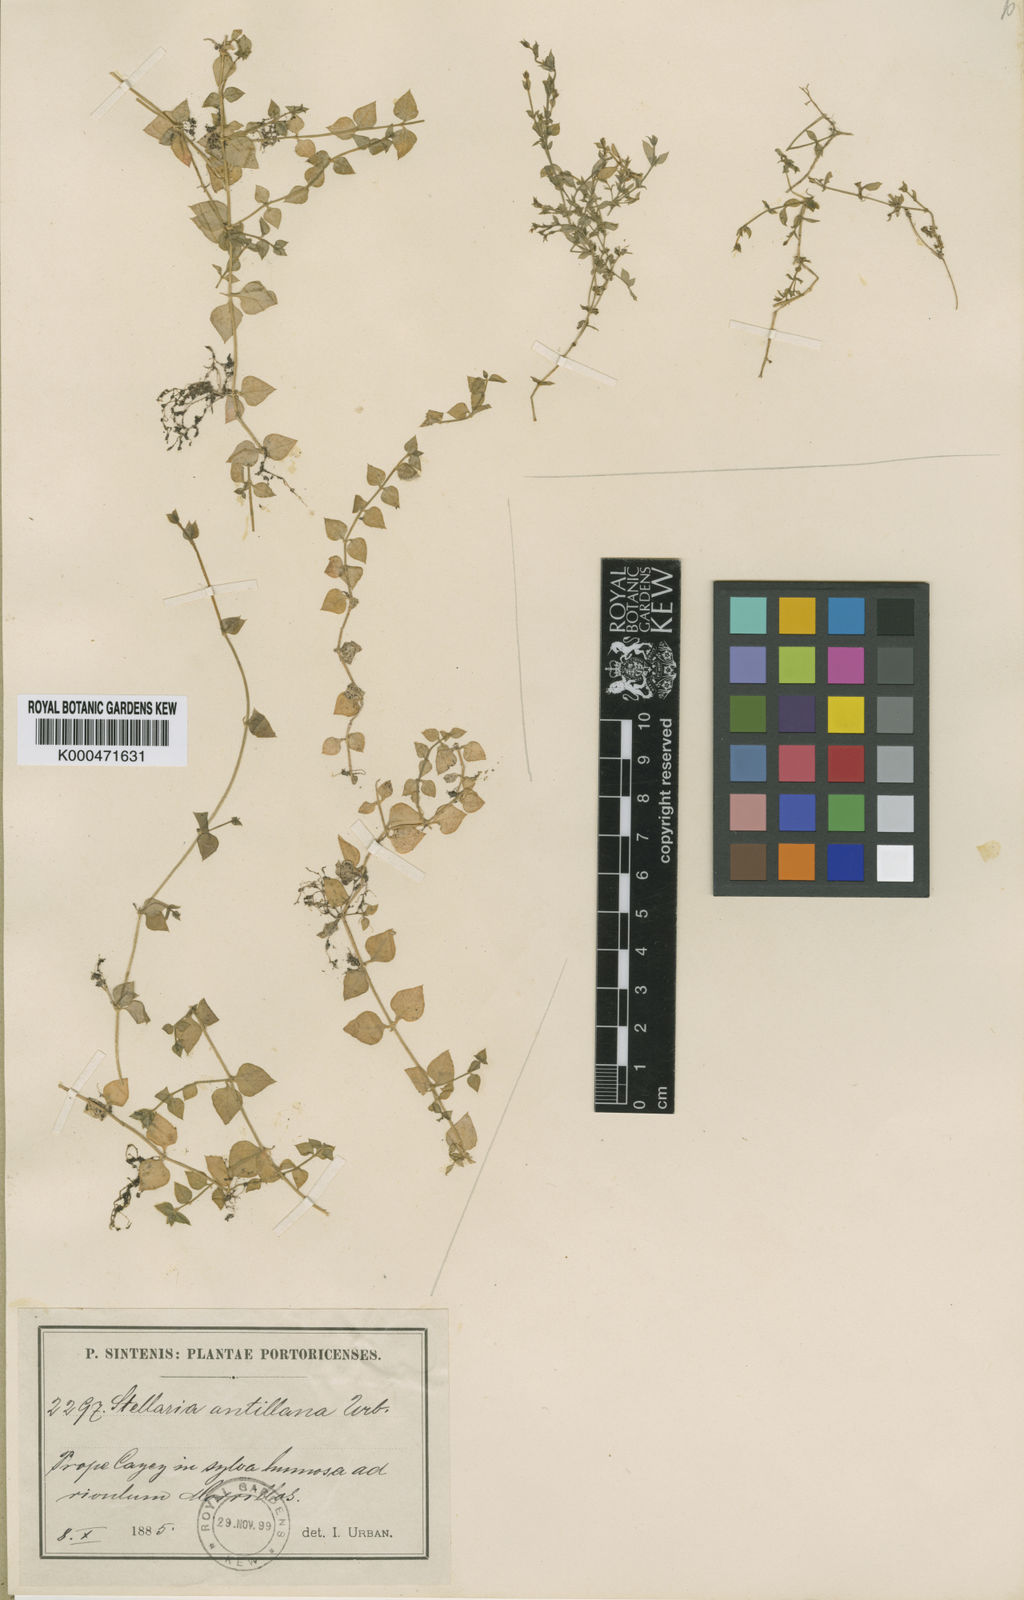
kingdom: Plantae
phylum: Tracheophyta
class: Magnoliopsida
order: Caryophyllales
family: Caryophyllaceae
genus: Stellaria
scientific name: Stellaria antillana
